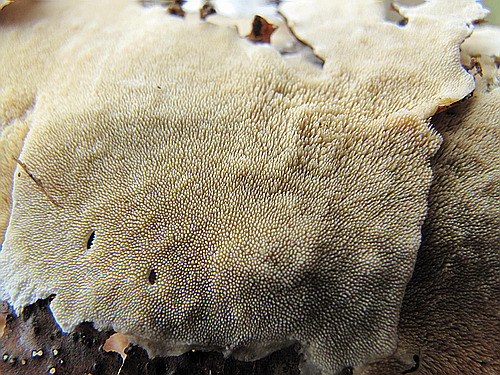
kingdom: Fungi
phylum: Basidiomycota
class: Agaricomycetes
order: Polyporales
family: Steccherinaceae
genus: Steccherinum
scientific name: Steccherinum ochraceum
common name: almindelig skønpig
